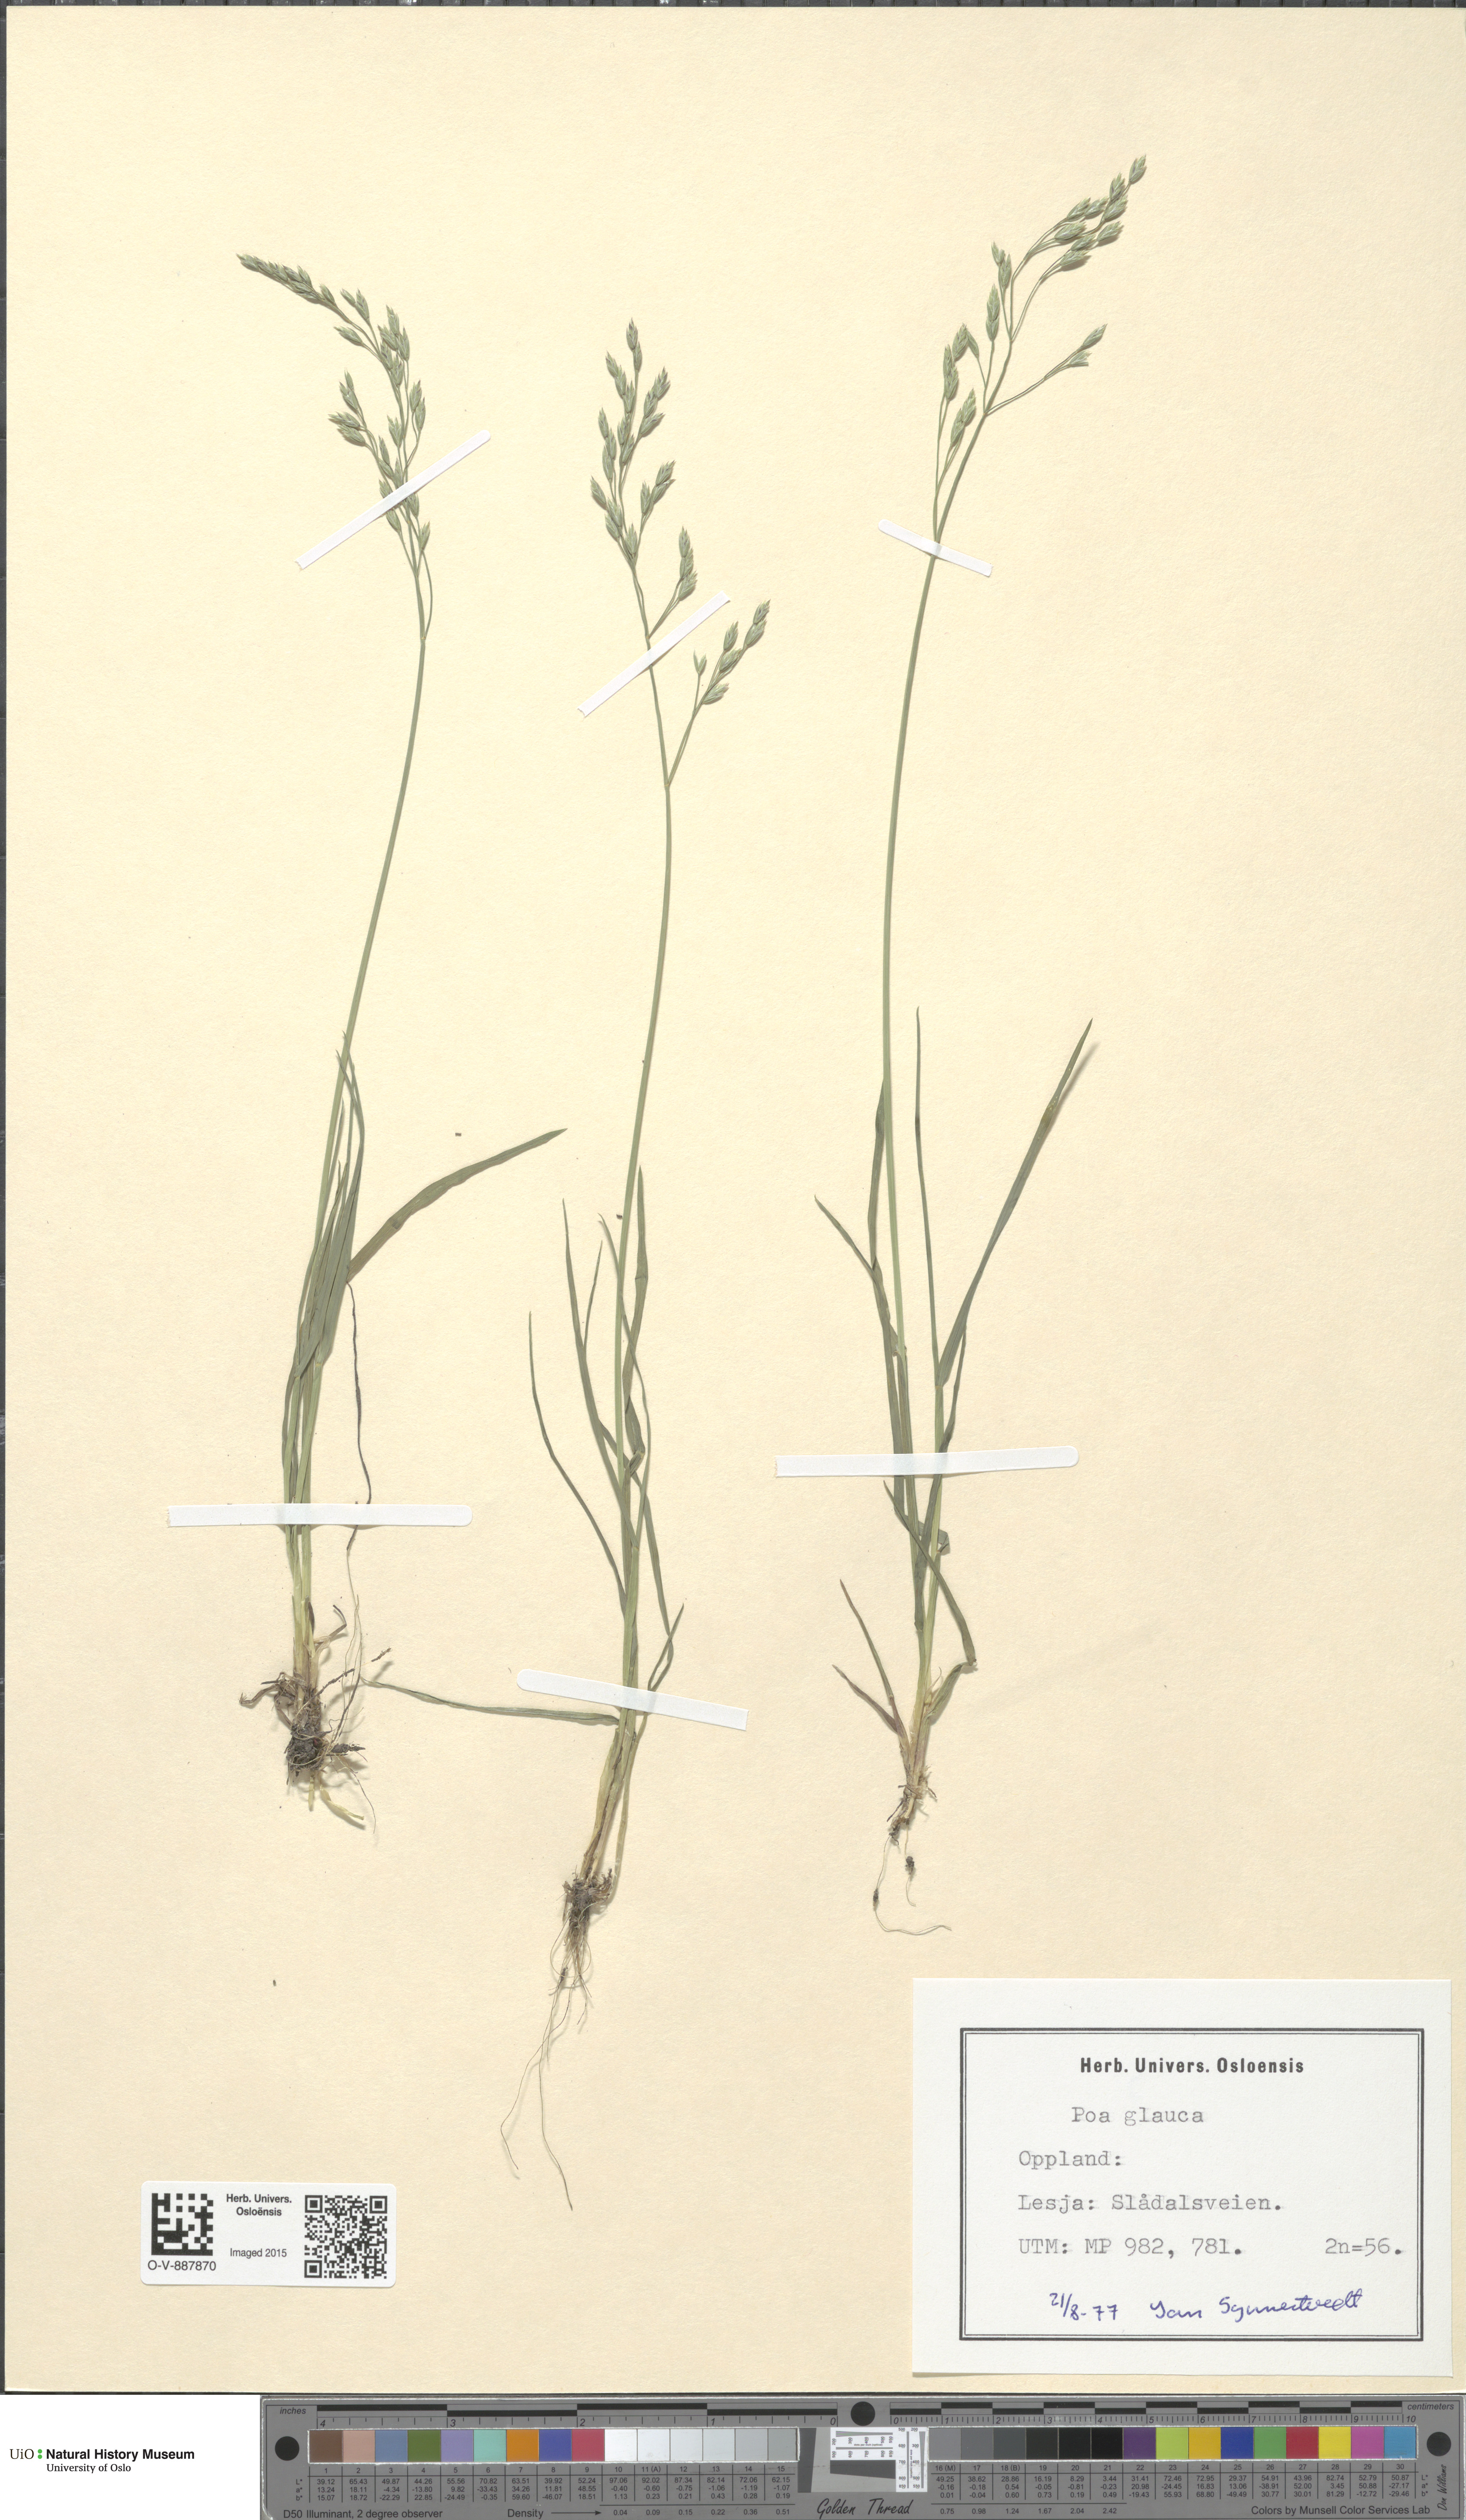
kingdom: Plantae
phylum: Tracheophyta
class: Liliopsida
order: Poales
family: Poaceae
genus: Poa
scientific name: Poa glauca
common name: Glaucous bluegrass
